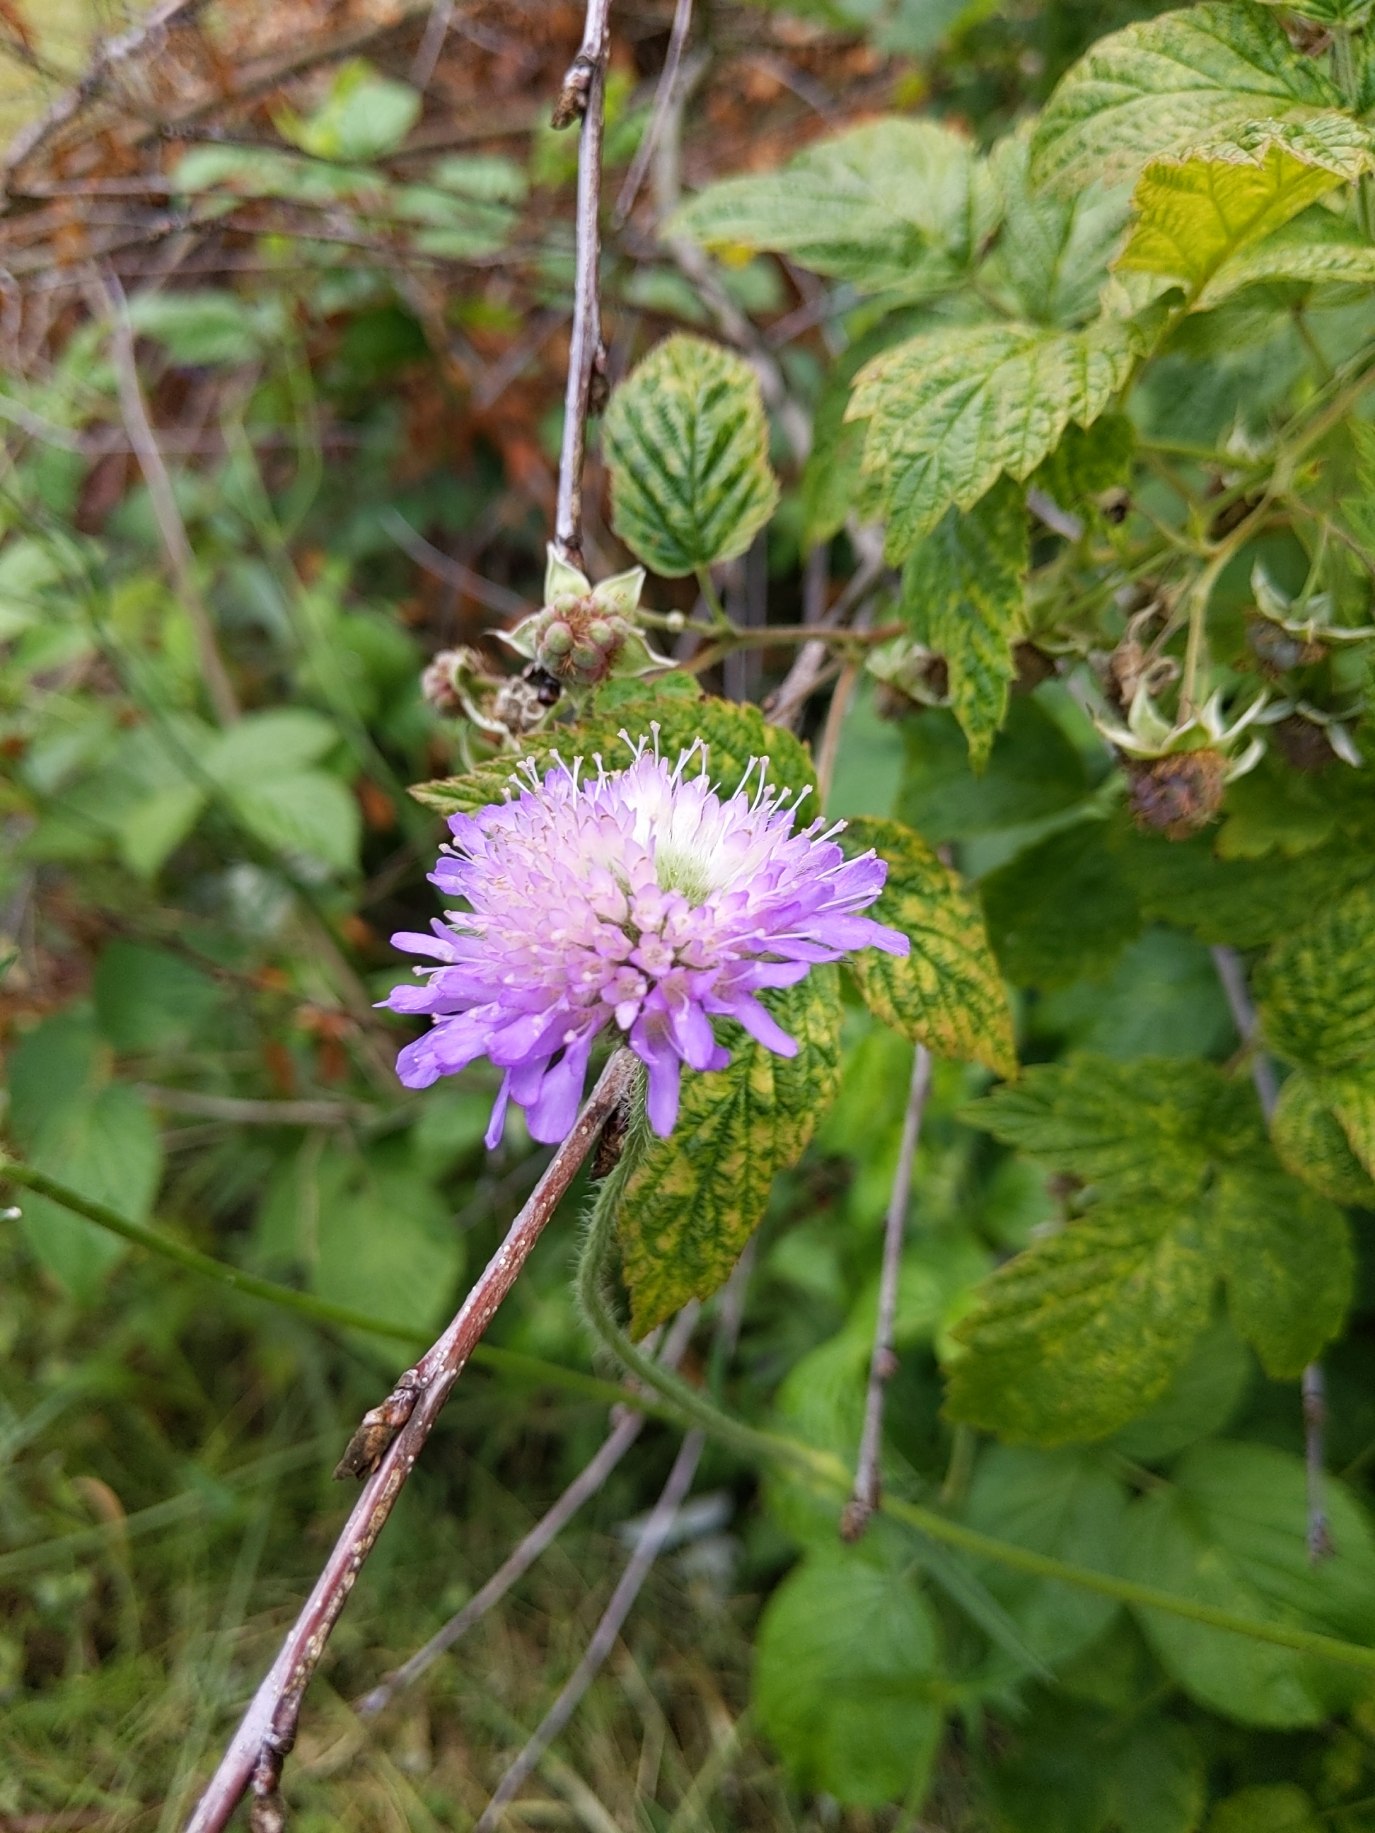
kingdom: Plantae
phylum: Tracheophyta
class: Magnoliopsida
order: Dipsacales
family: Caprifoliaceae
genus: Knautia
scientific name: Knautia arvensis
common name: Blåhat
